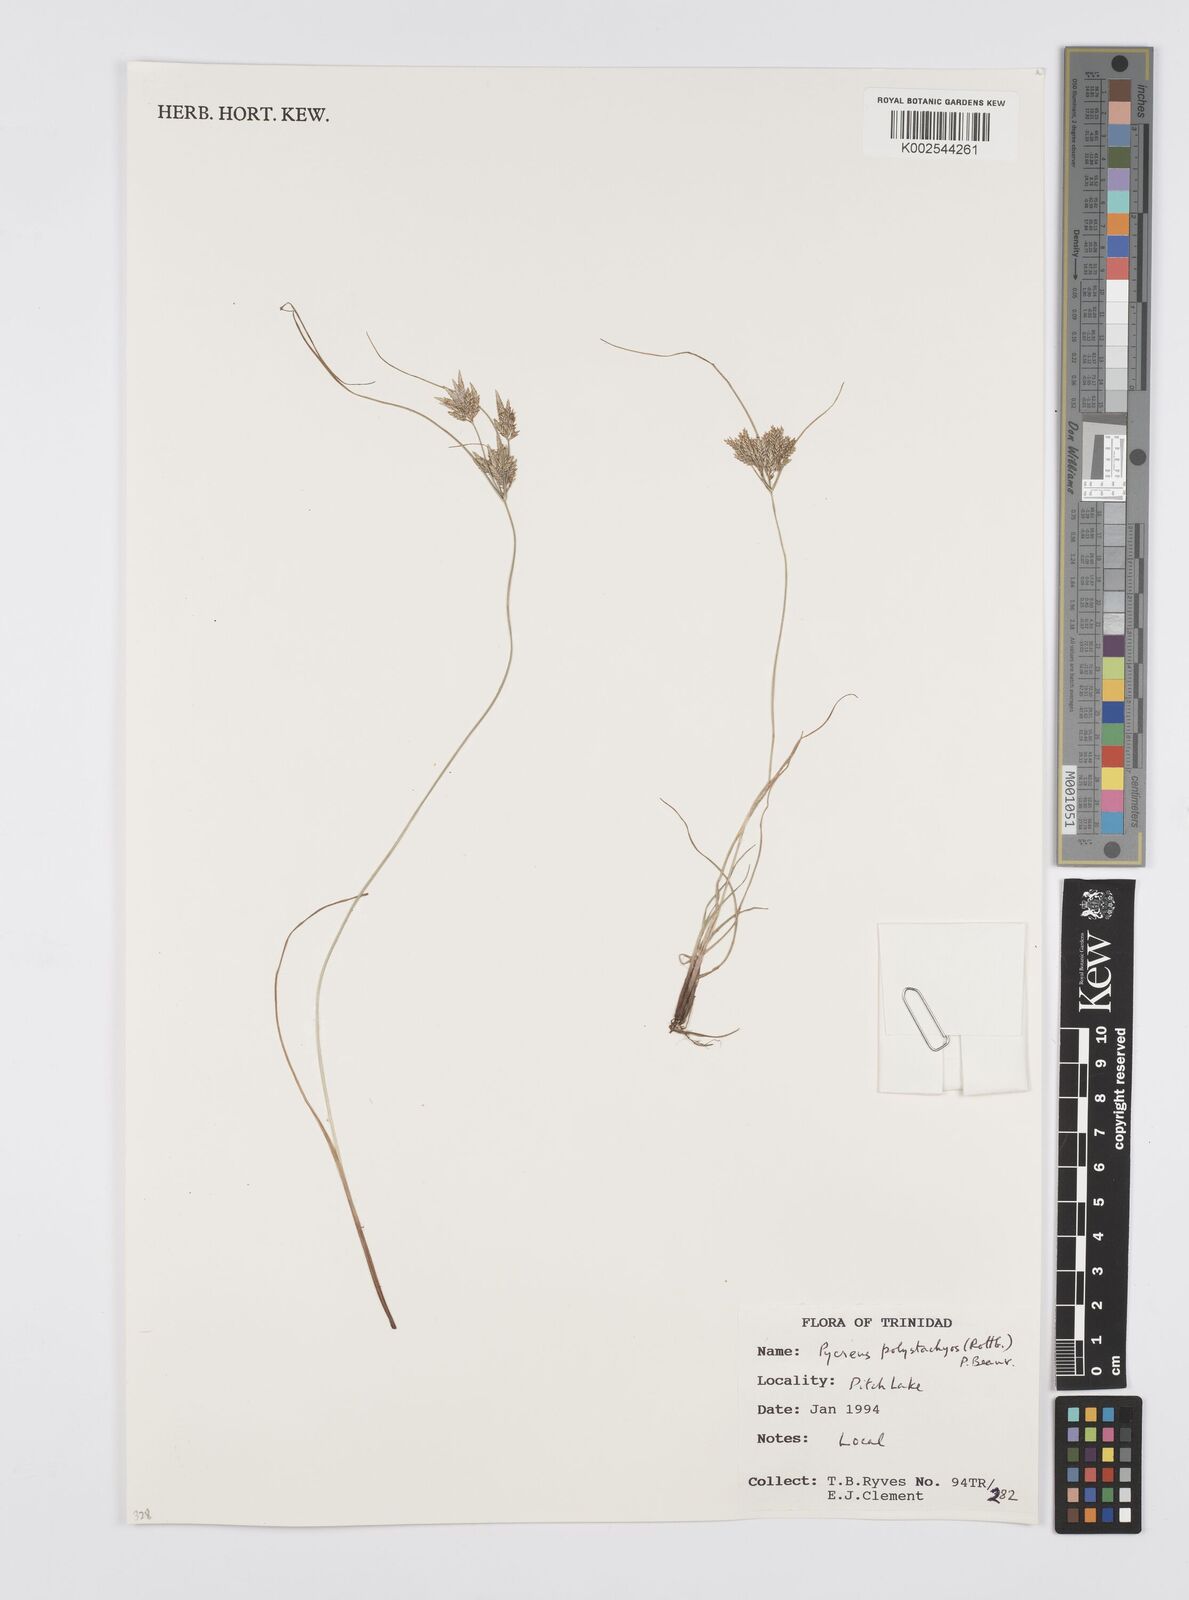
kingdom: Plantae
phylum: Tracheophyta
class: Liliopsida
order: Poales
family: Cyperaceae
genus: Cyperus
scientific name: Cyperus polystachyos
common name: Bunchy flat sedge
